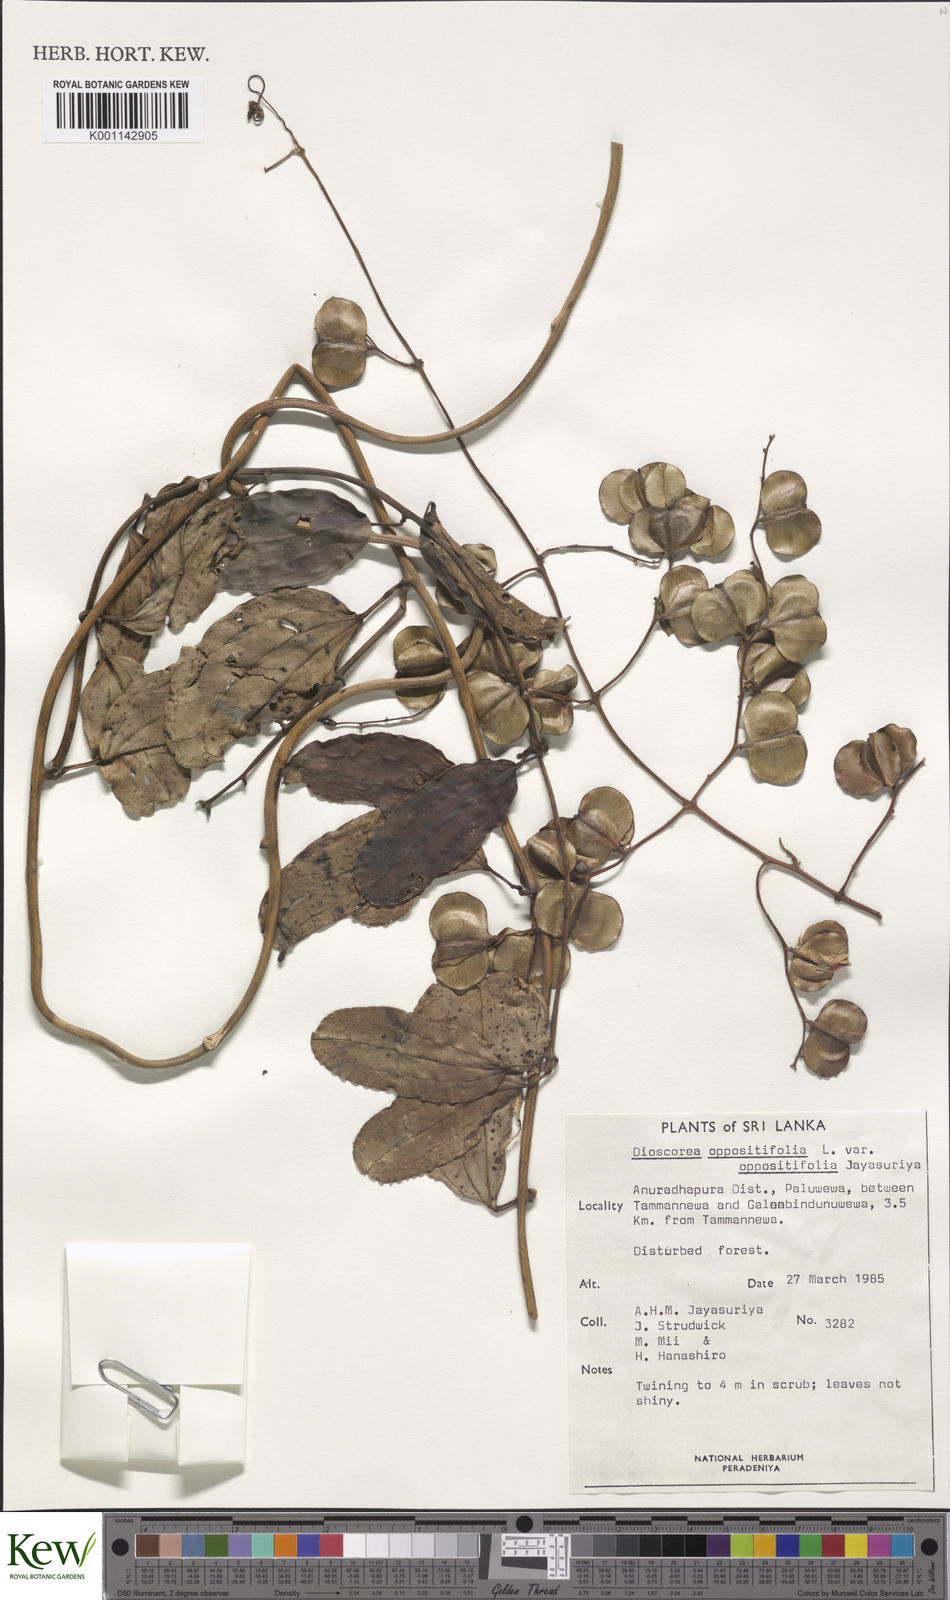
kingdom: Plantae
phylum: Tracheophyta
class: Liliopsida
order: Dioscoreales
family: Dioscoreaceae
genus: Dioscorea
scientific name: Dioscorea oppositifolia
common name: Chinese yam
